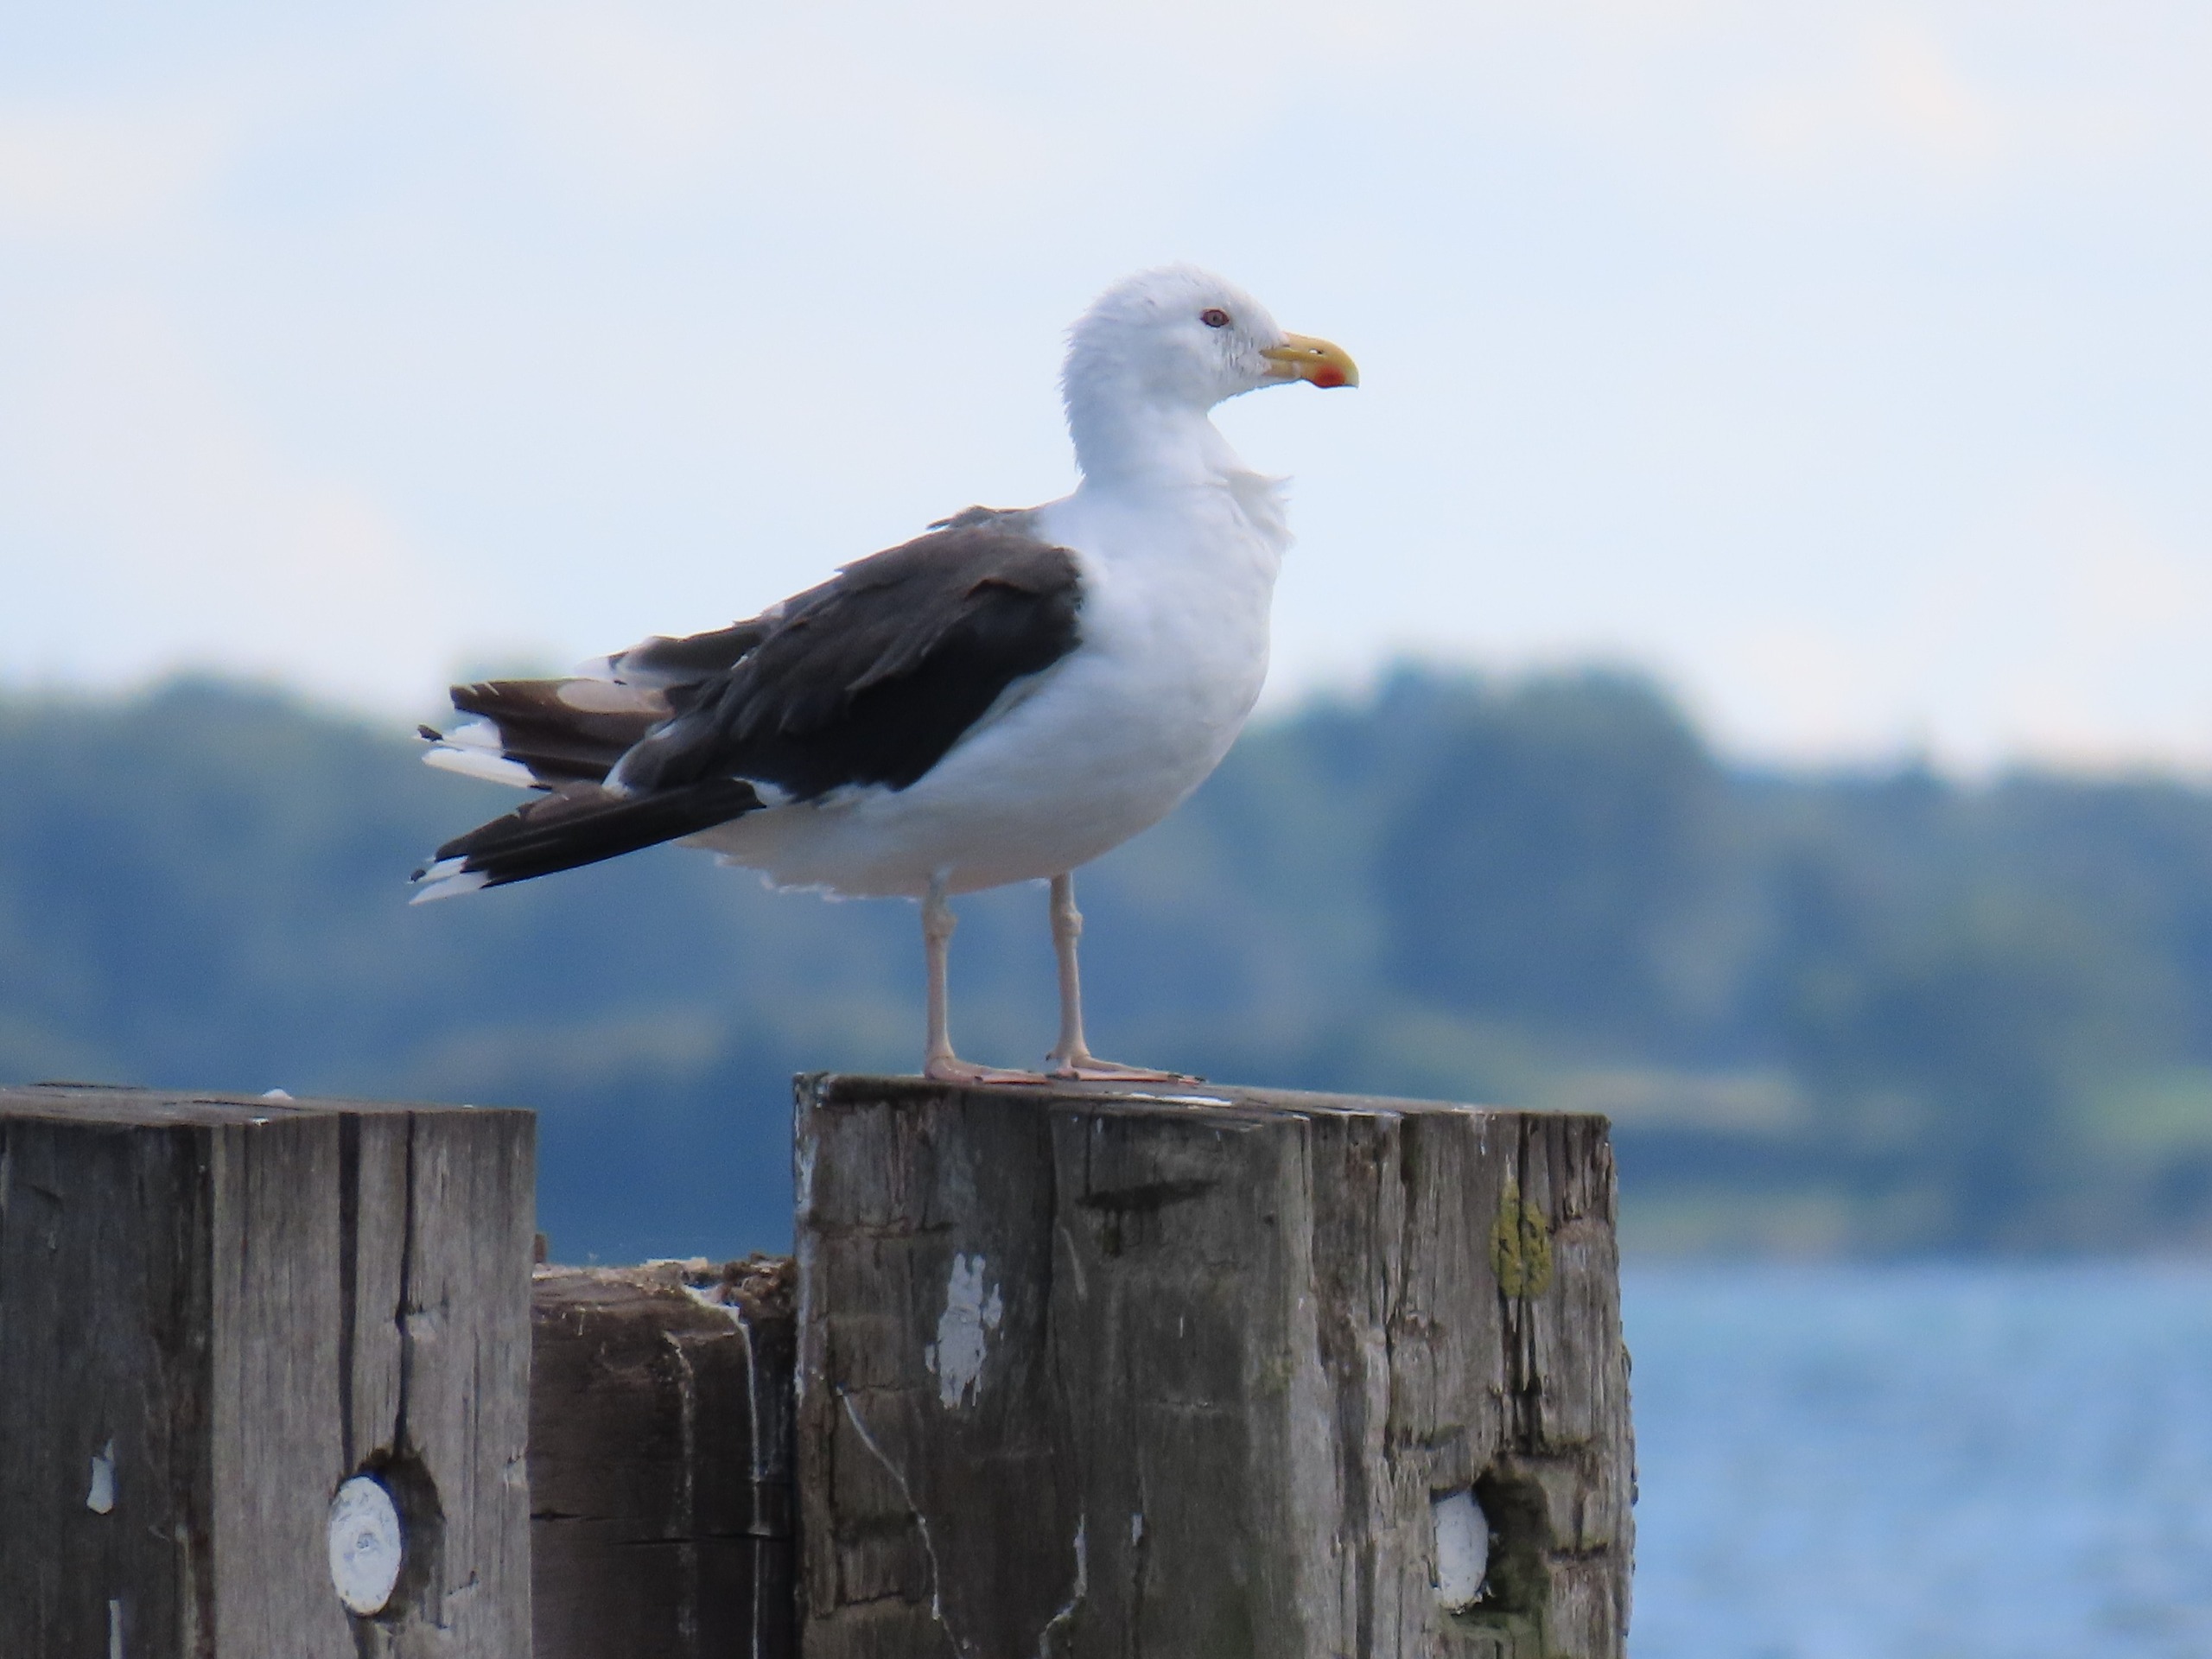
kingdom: Animalia
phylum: Chordata
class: Aves
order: Charadriiformes
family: Laridae
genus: Larus
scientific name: Larus marinus
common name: Svartbag
